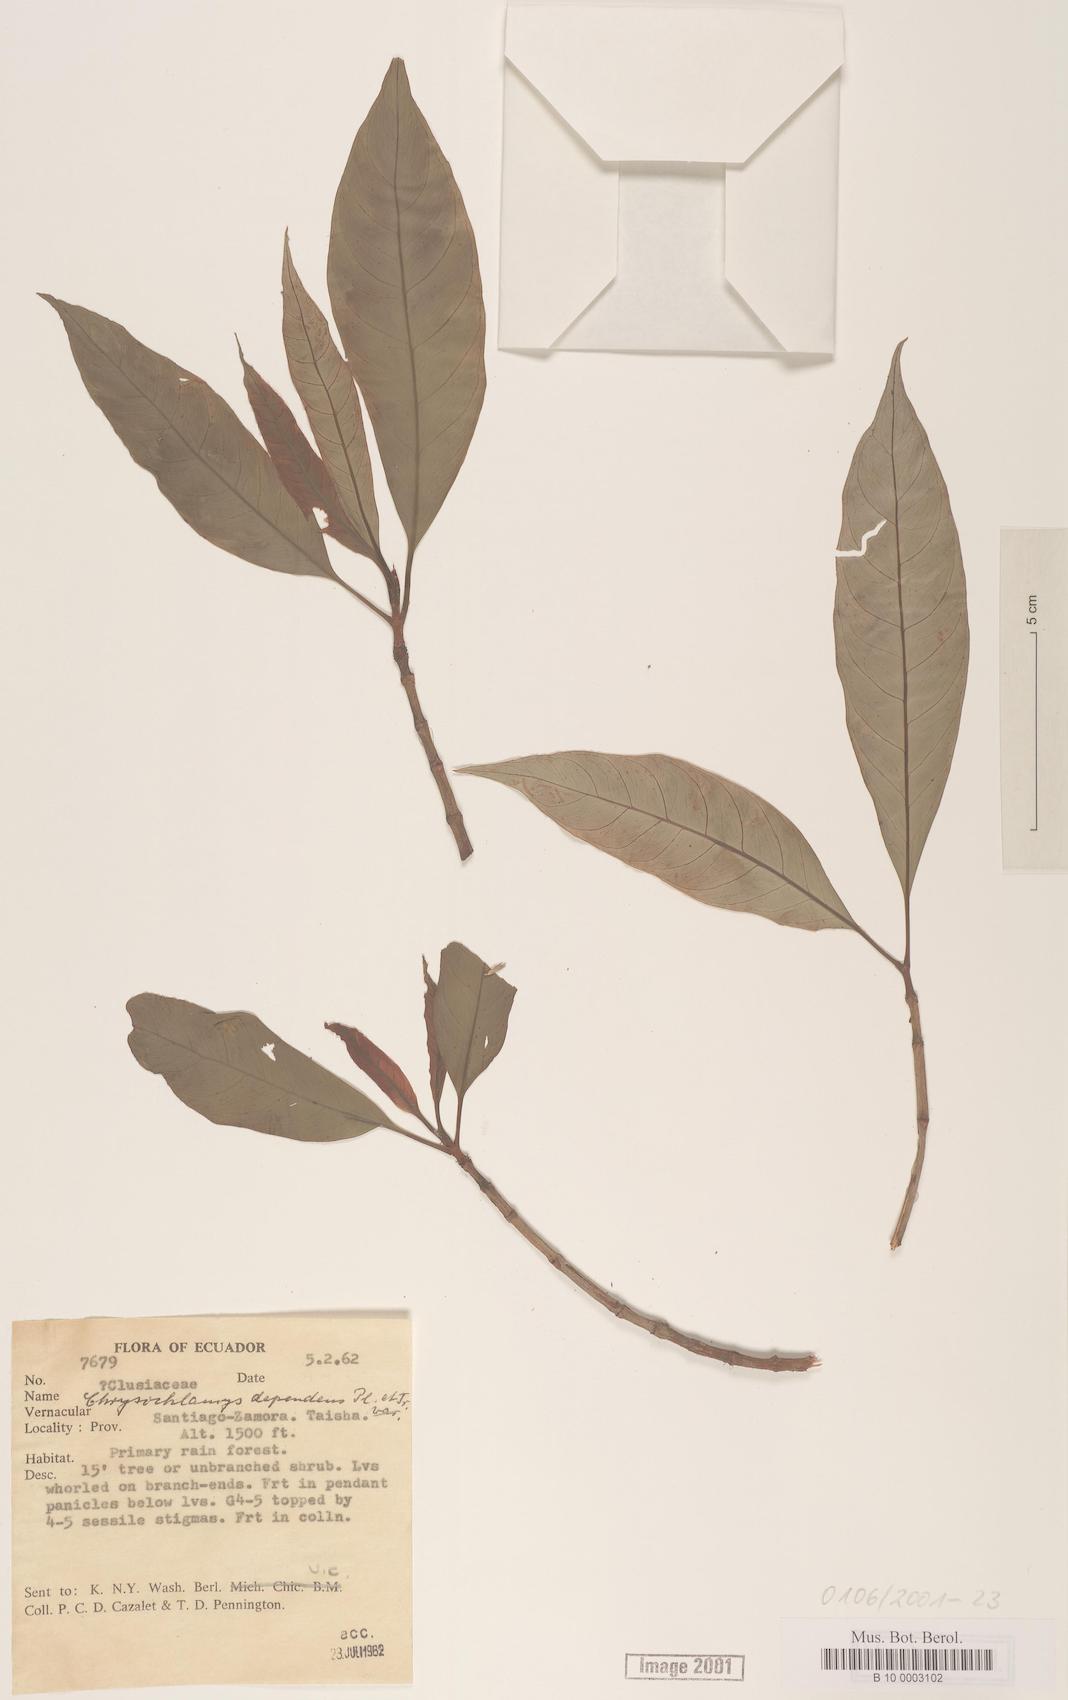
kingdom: Plantae
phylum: Tracheophyta
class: Magnoliopsida
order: Malpighiales
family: Clusiaceae
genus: Chrysochlamys
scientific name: Chrysochlamys dependens
